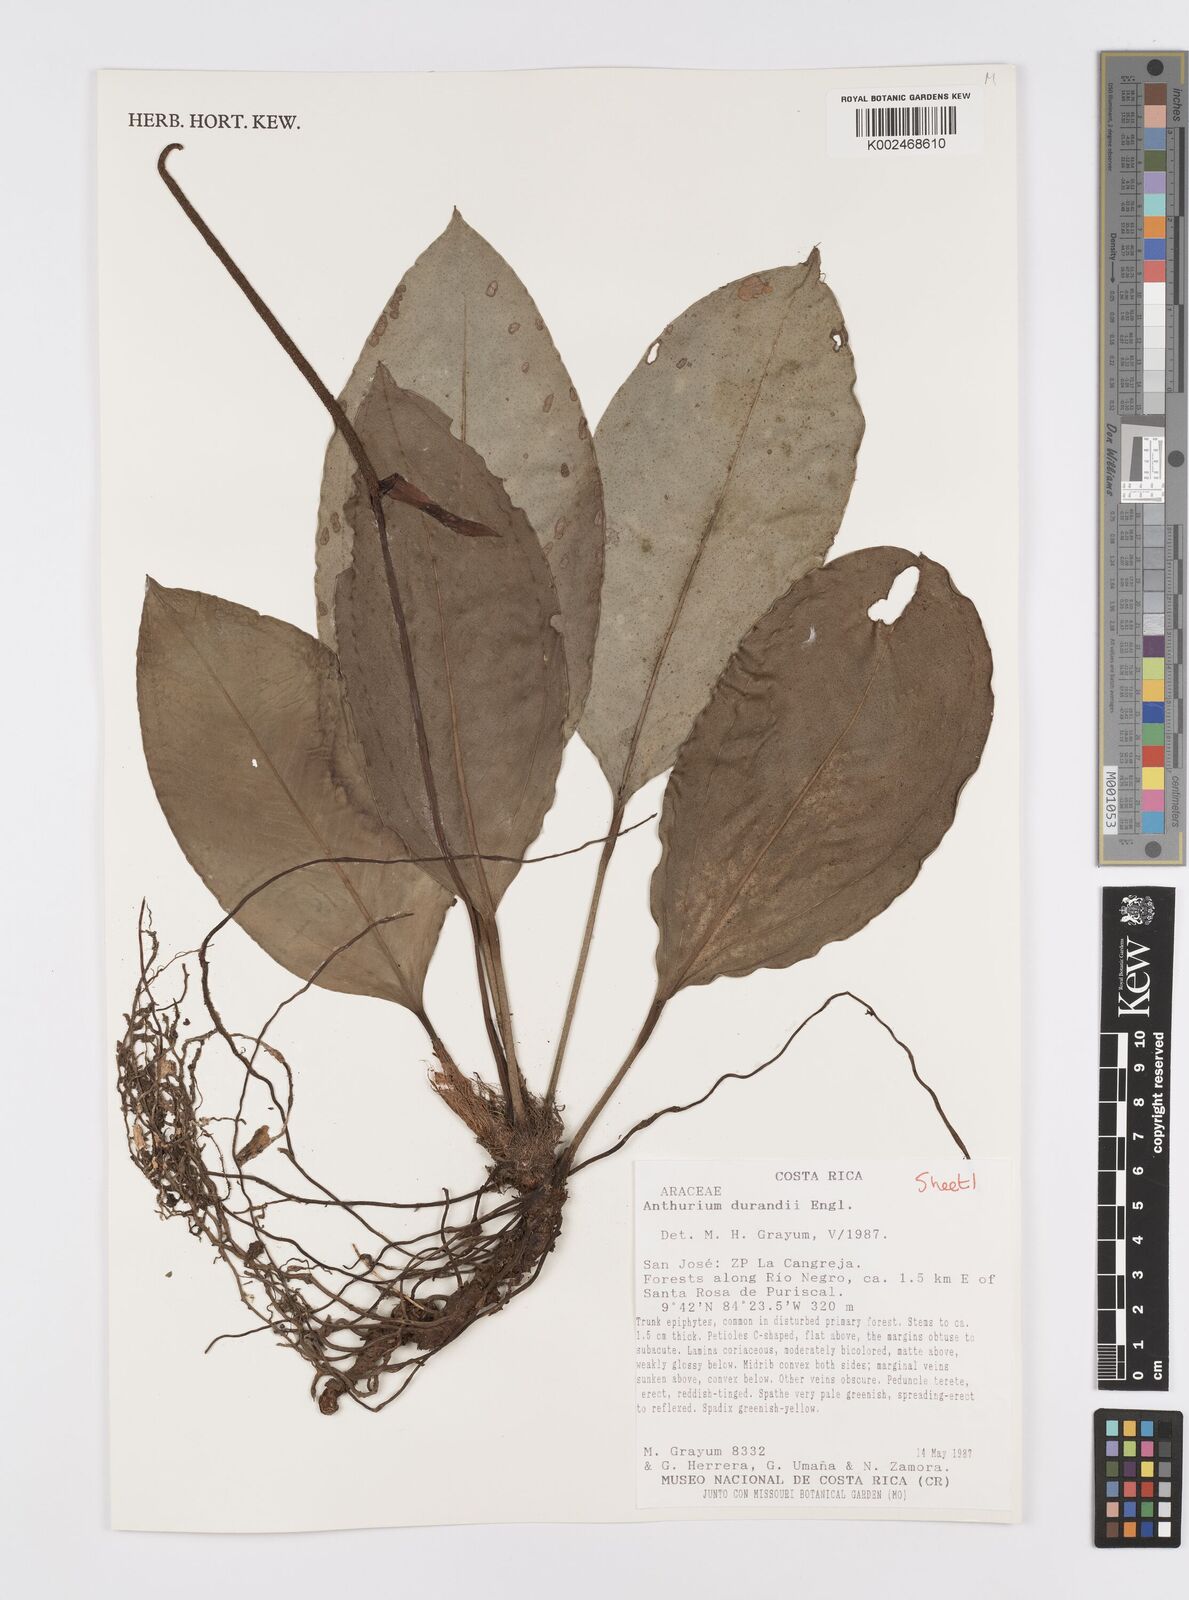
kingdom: Plantae
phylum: Tracheophyta
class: Liliopsida
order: Alismatales
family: Araceae
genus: Anthurium
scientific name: Anthurium durandii
